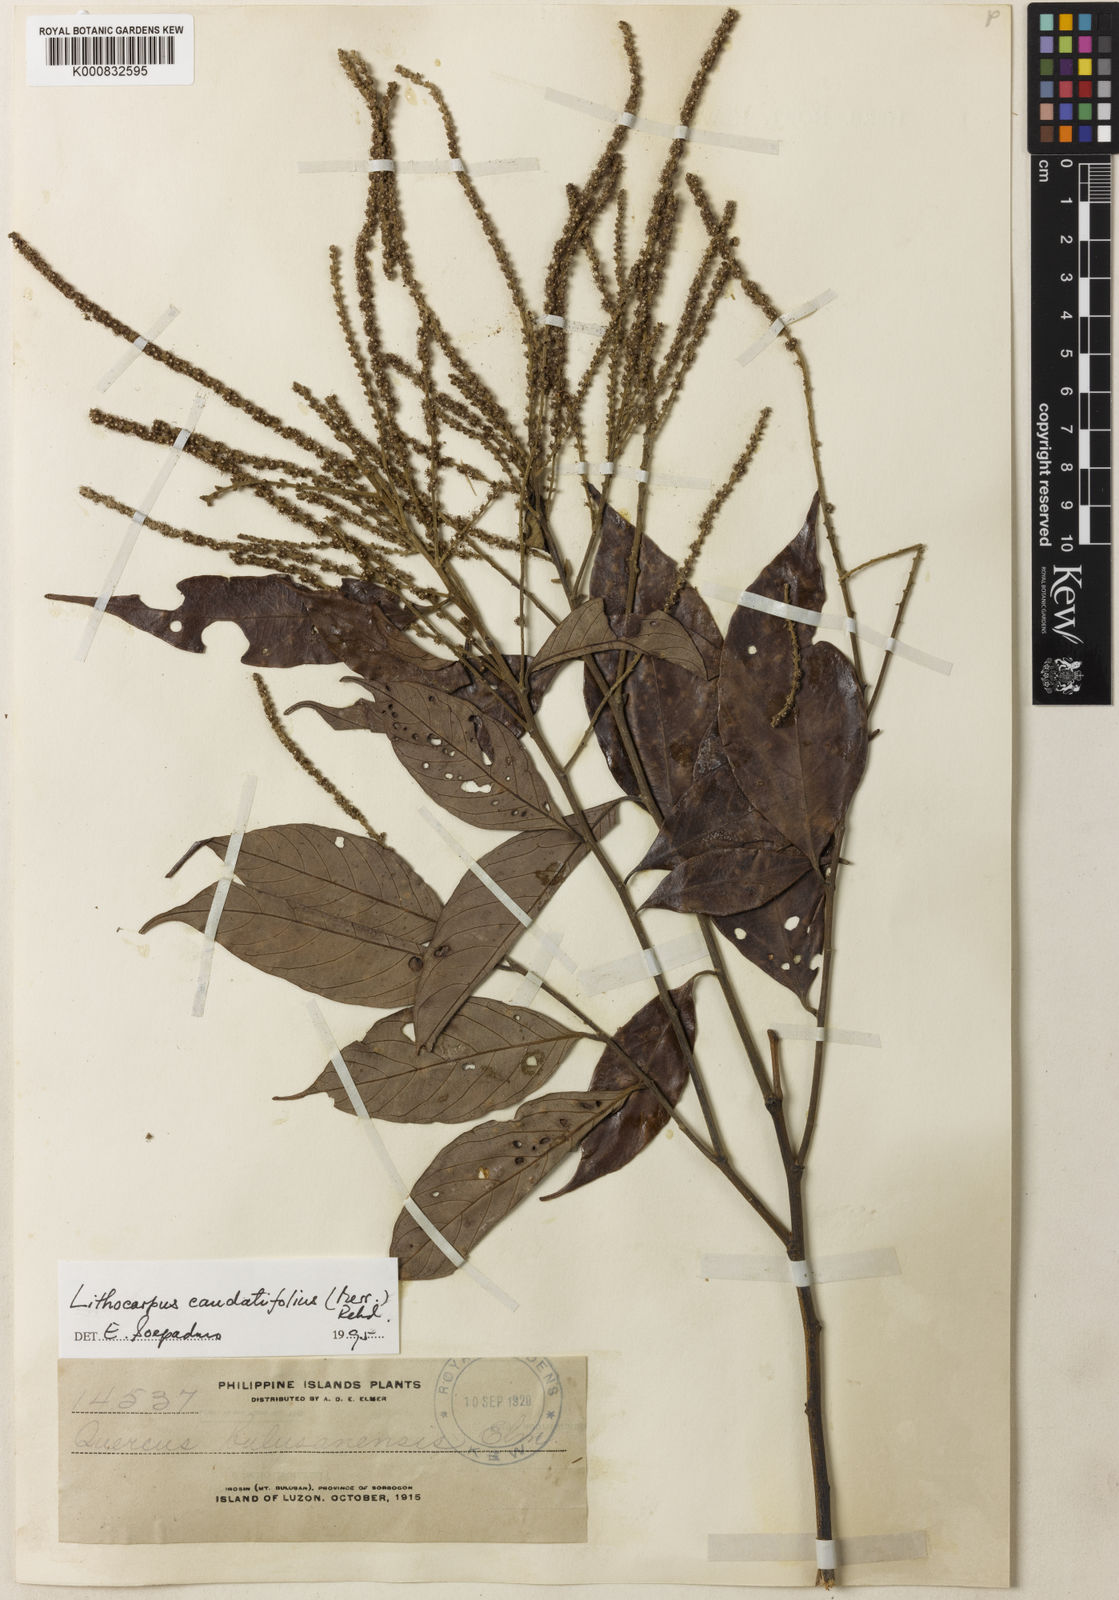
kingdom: Plantae
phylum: Tracheophyta
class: Magnoliopsida
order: Fagales
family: Fagaceae
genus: Lithocarpus
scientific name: Lithocarpus caudatifolius
